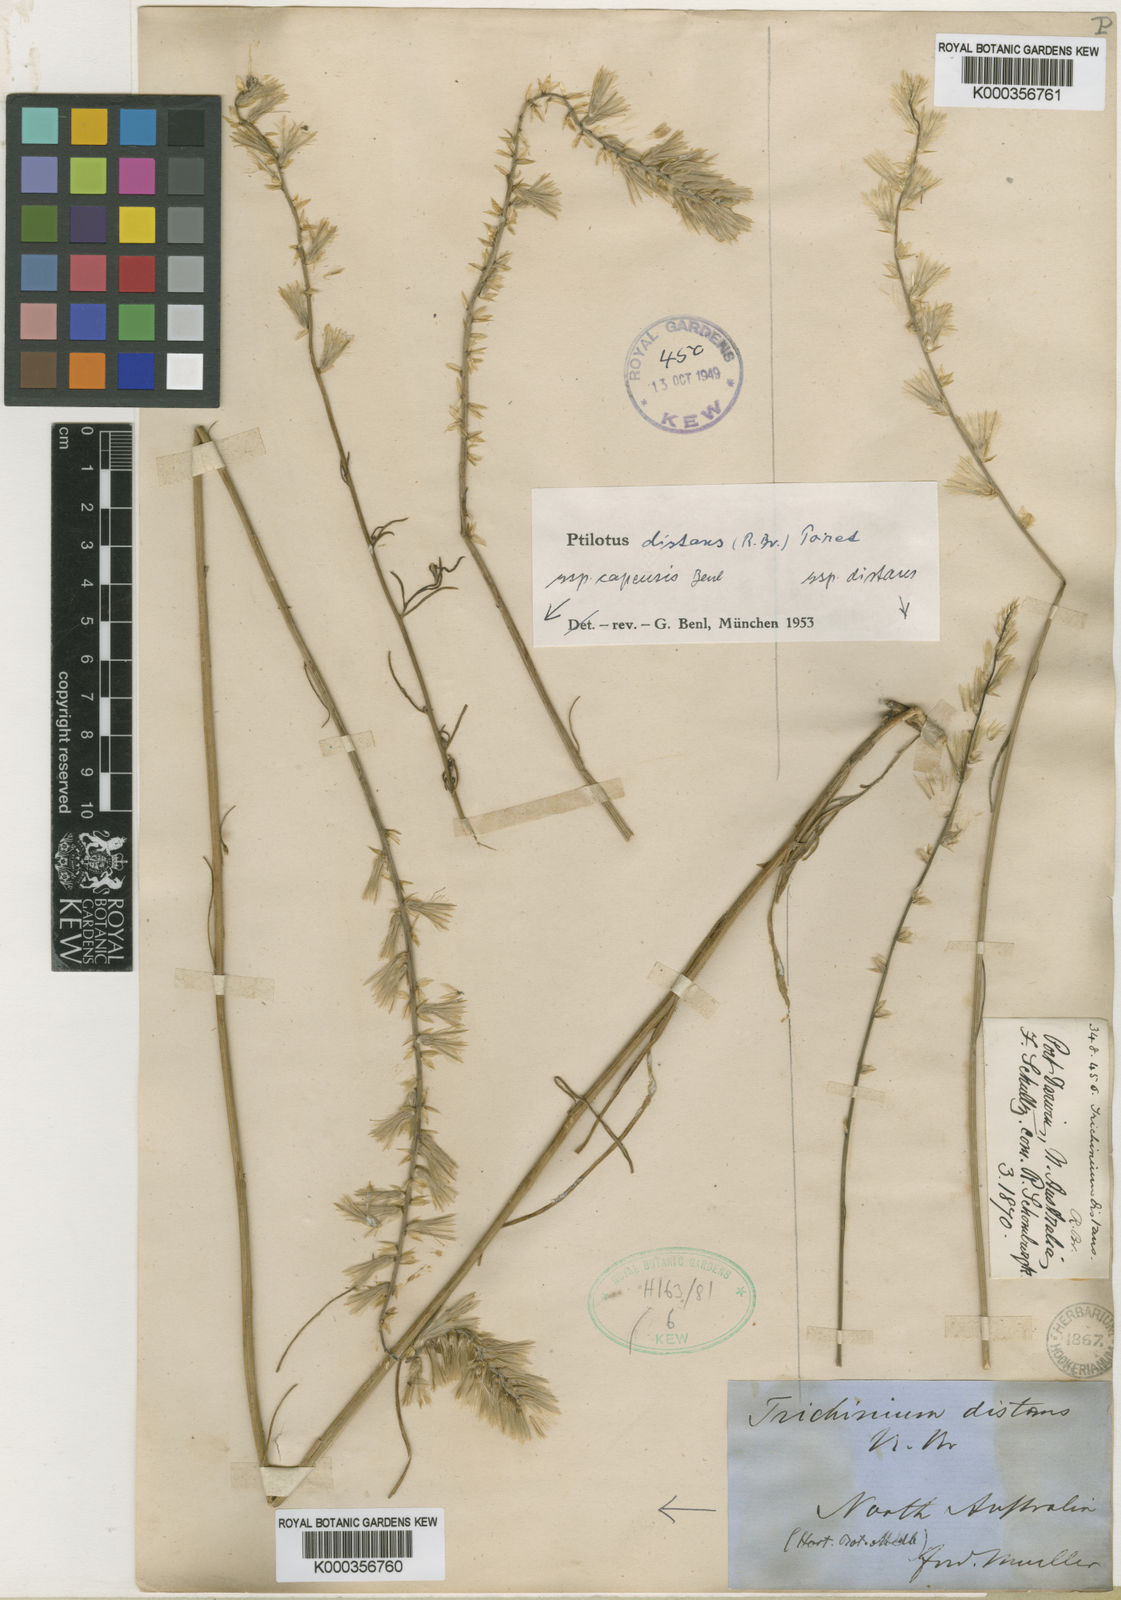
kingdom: Plantae
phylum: Tracheophyta
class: Magnoliopsida
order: Caryophyllales
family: Amaranthaceae
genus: Ptilotus
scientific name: Ptilotus distans
